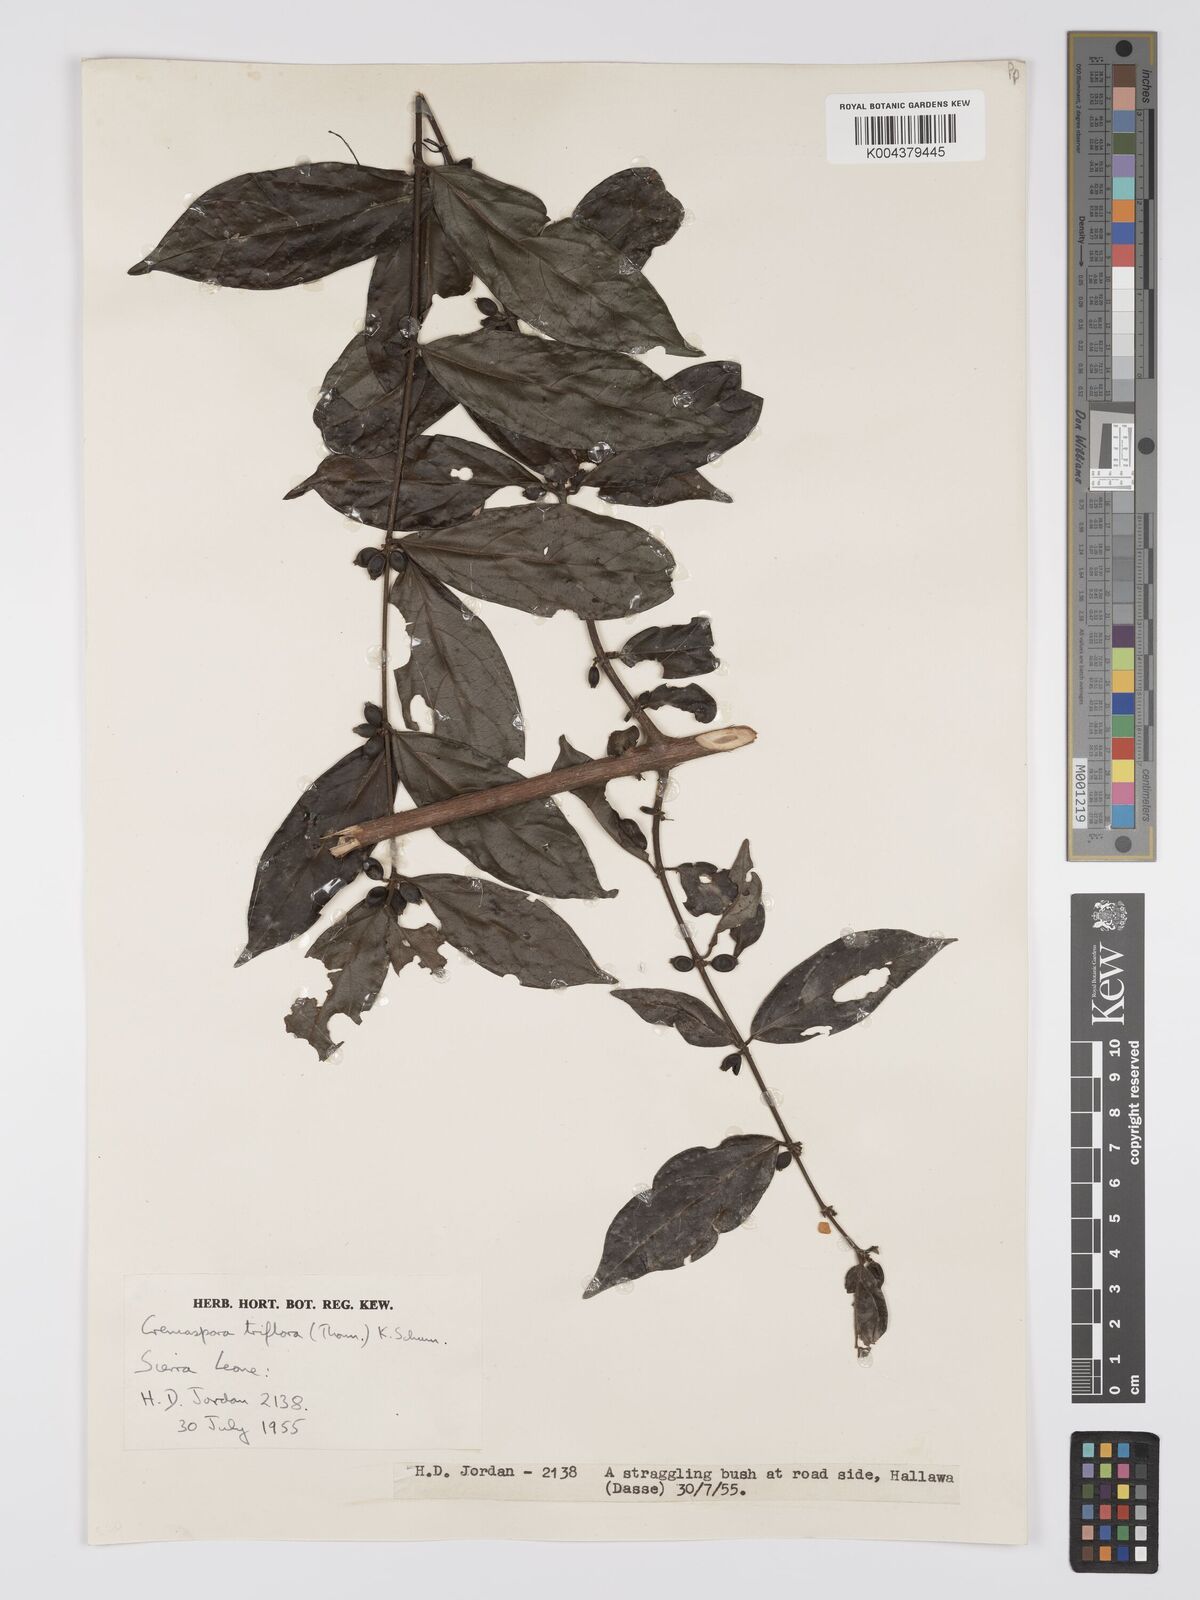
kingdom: Plantae
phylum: Tracheophyta
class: Magnoliopsida
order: Gentianales
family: Rubiaceae
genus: Cremaspora
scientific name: Cremaspora triflora
